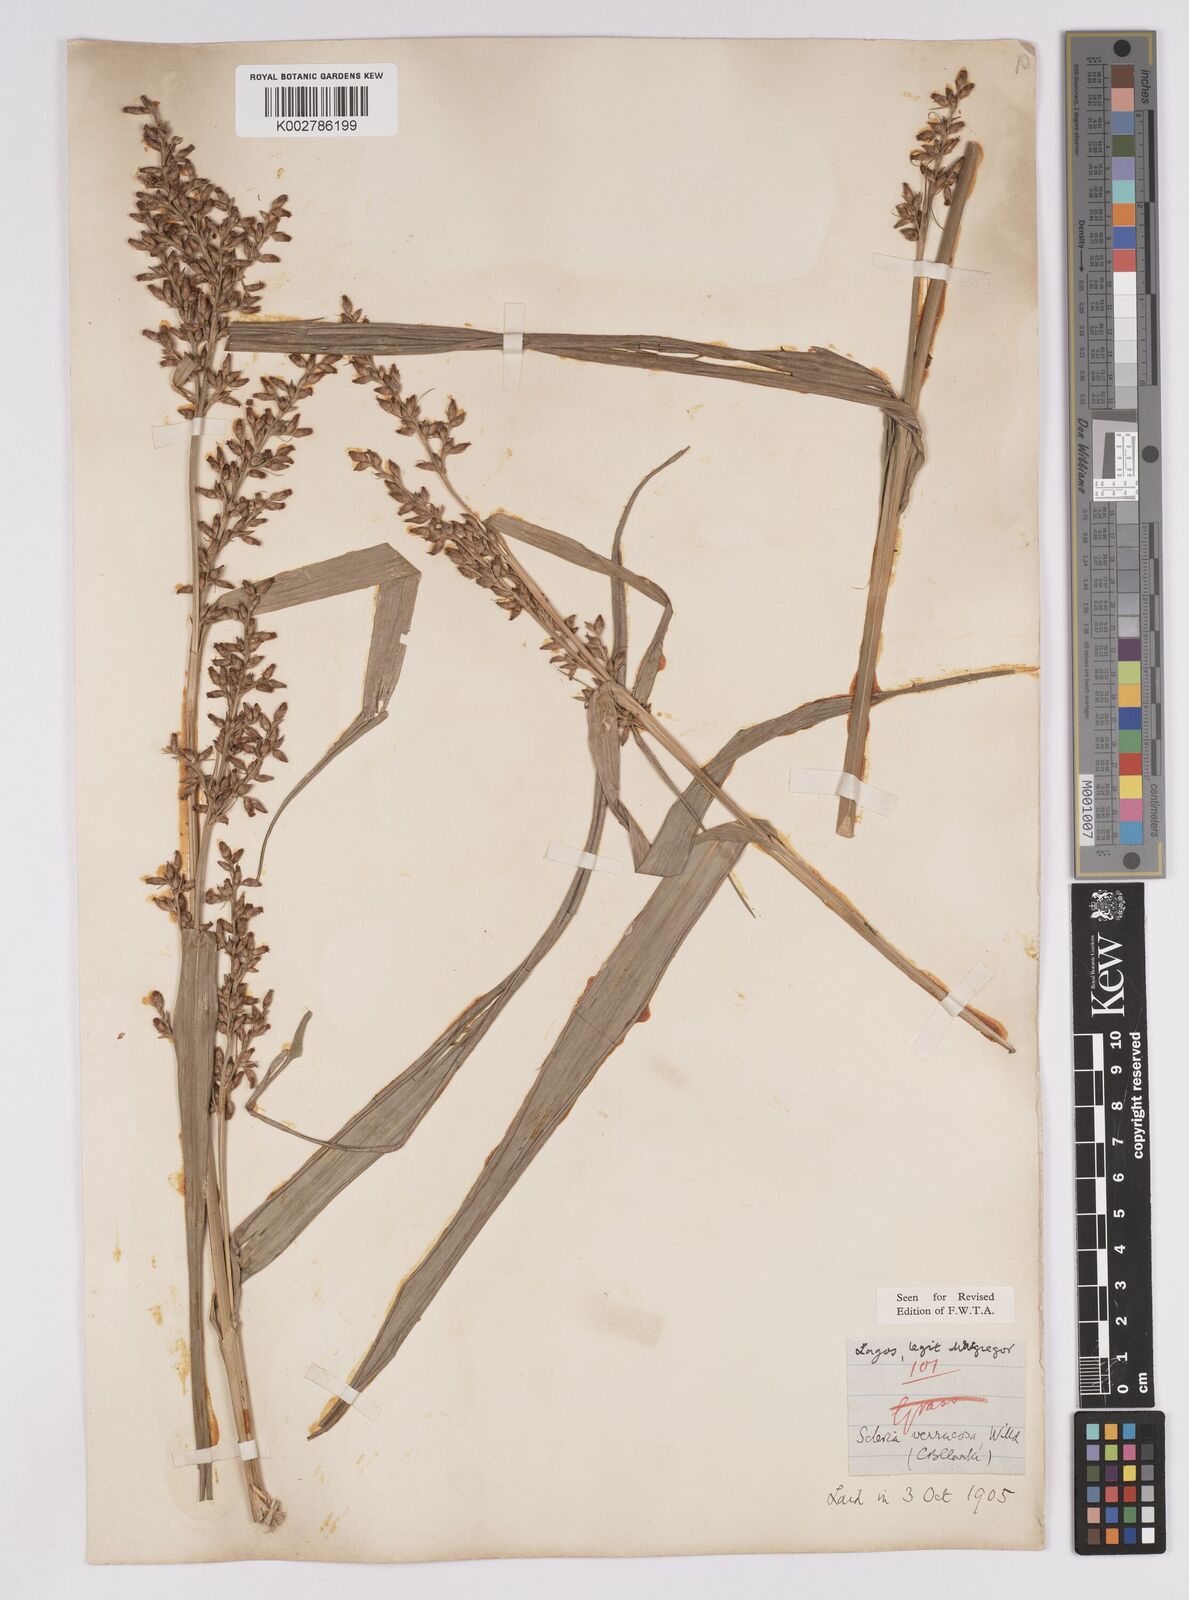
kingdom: Plantae
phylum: Tracheophyta
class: Liliopsida
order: Poales
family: Cyperaceae
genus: Scleria
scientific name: Scleria verrucosa
